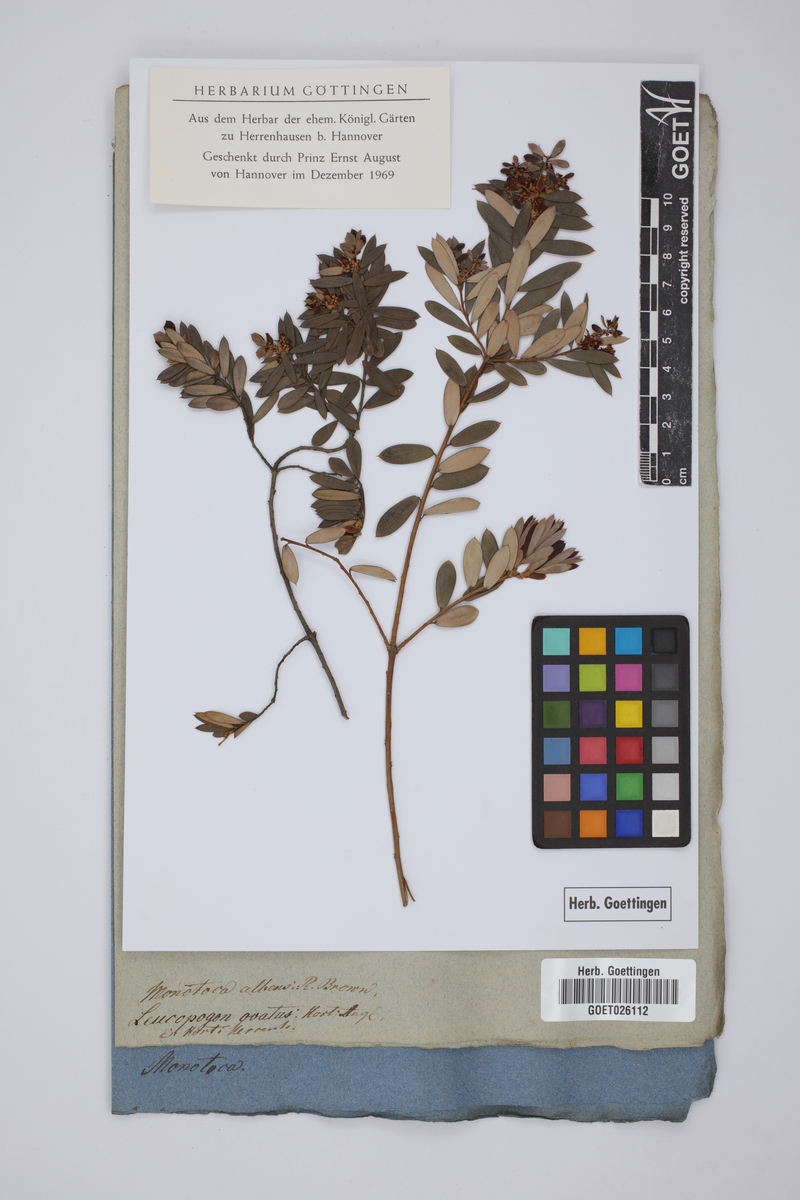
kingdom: Plantae
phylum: Tracheophyta
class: Magnoliopsida
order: Ericales
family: Ericaceae
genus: Leucopogon
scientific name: Leucopogon carinatus
